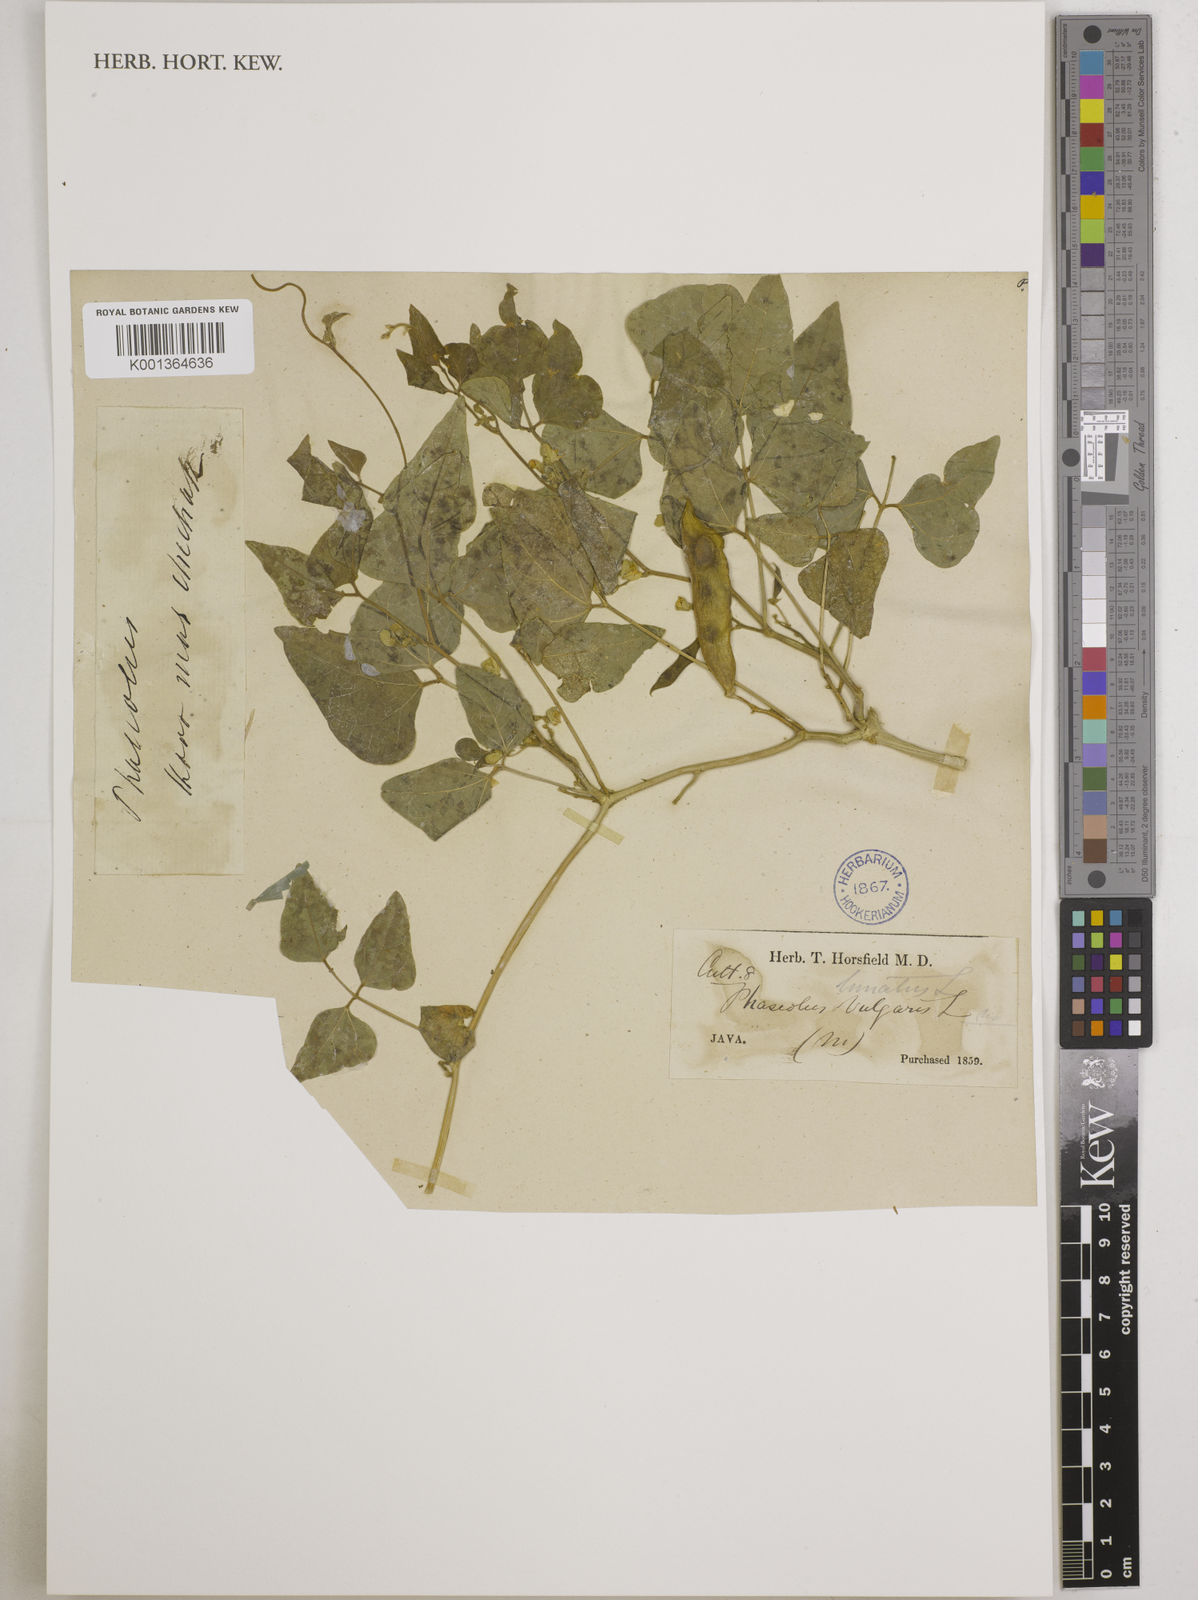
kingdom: Plantae
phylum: Tracheophyta
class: Magnoliopsida
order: Fabales
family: Fabaceae
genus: Phaseolus
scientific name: Phaseolus lunatus
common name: Sieva bean
